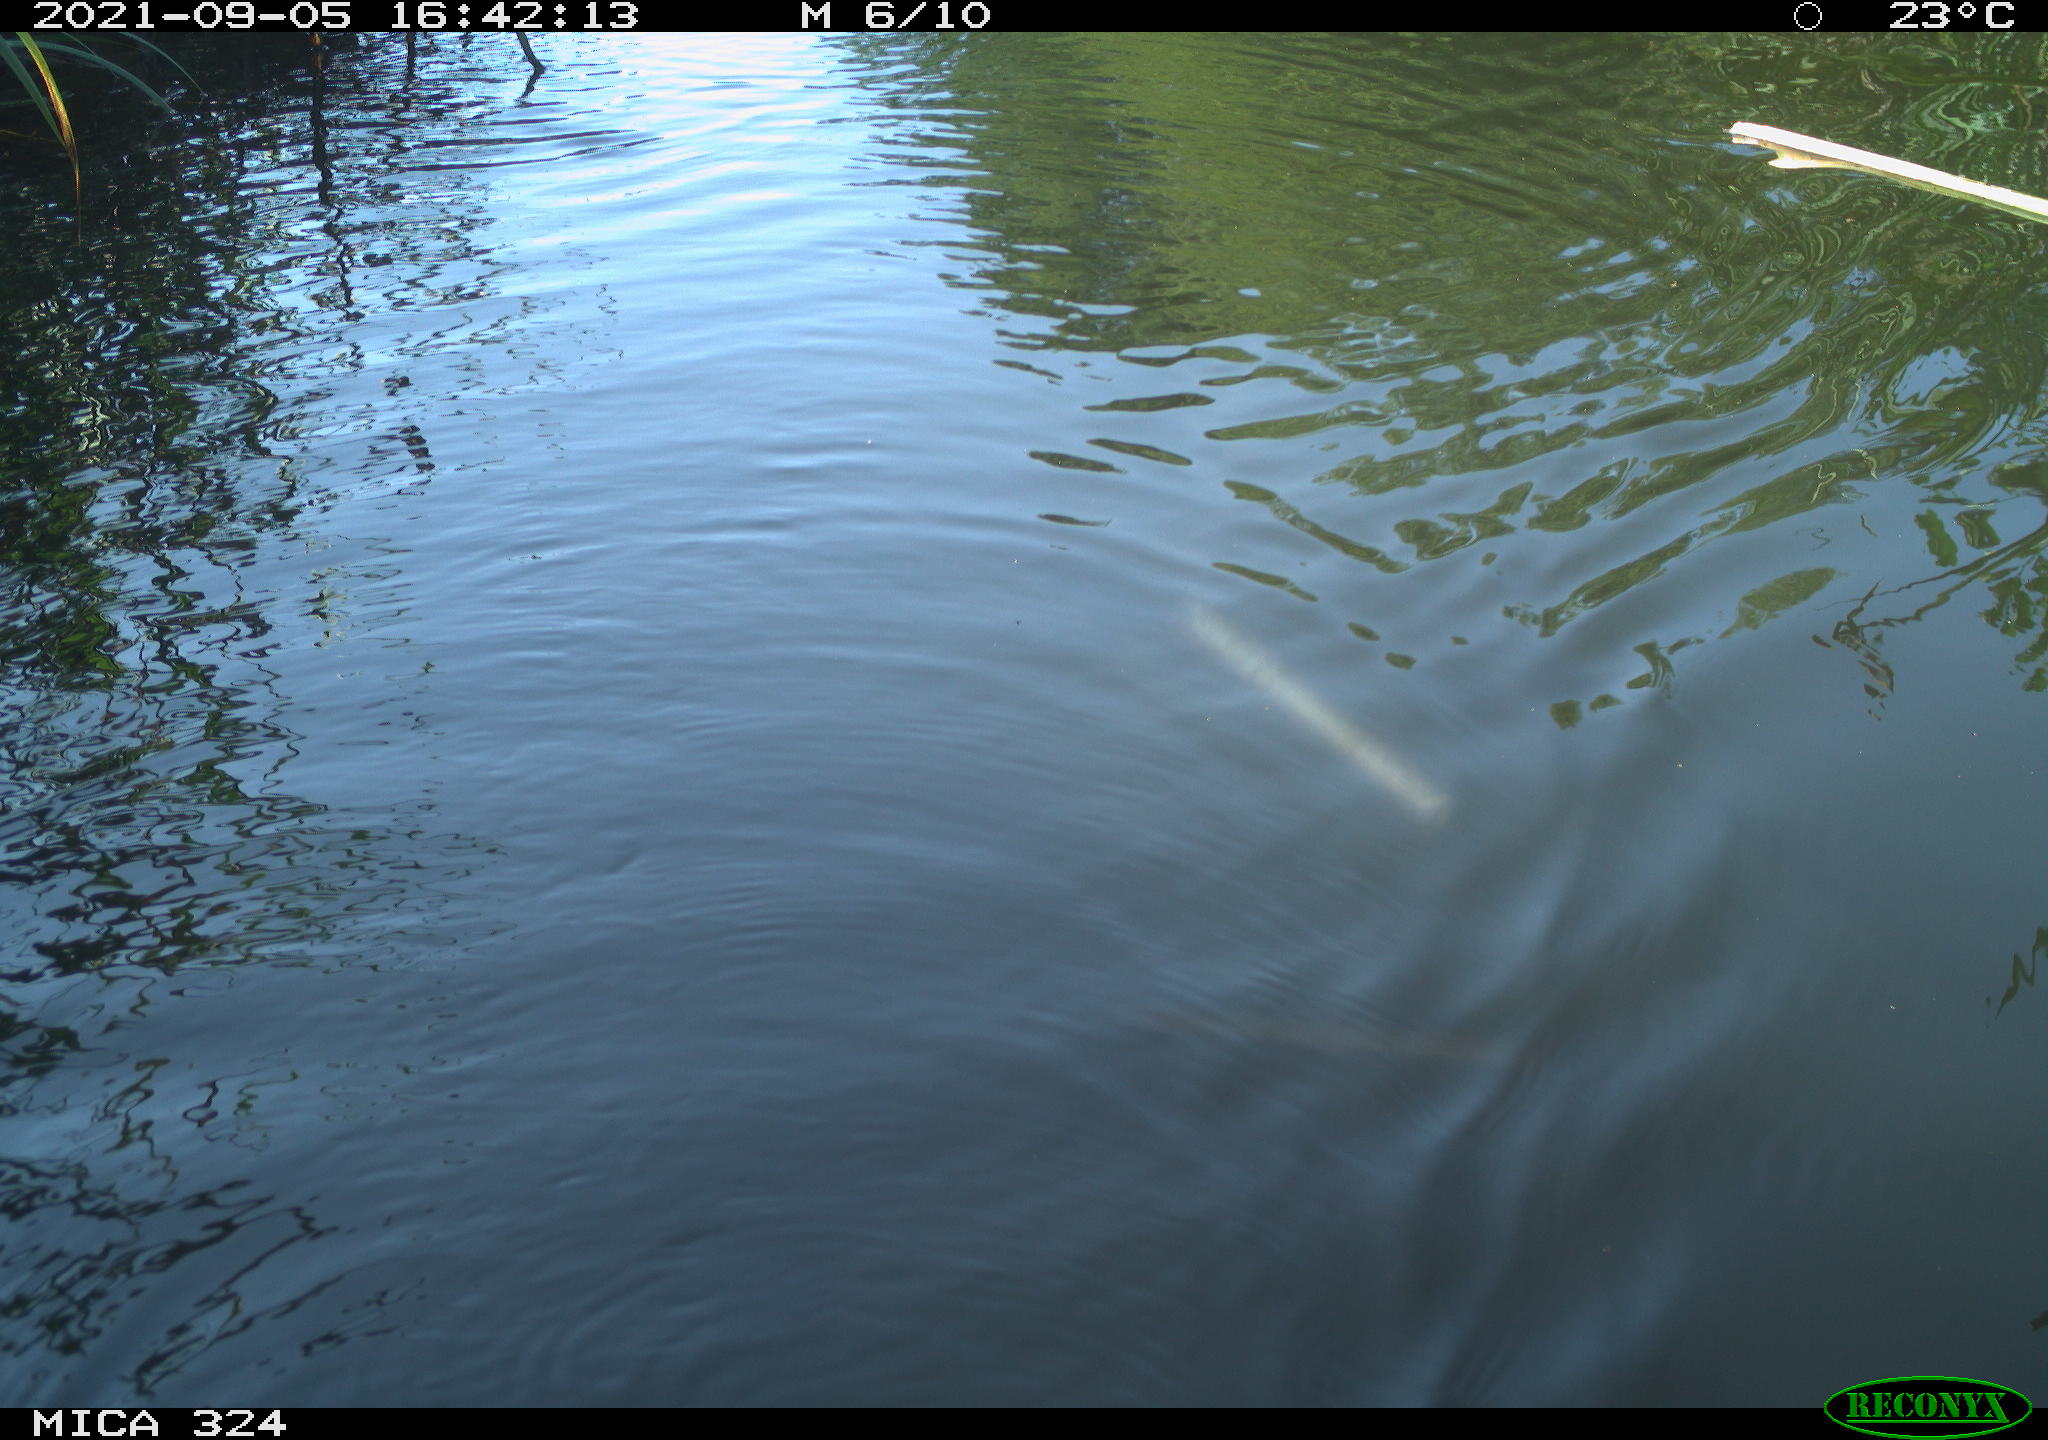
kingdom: Animalia
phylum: Chordata
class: Mammalia
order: Rodentia
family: Cricetidae
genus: Ondatra
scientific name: Ondatra zibethicus
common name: Muskrat
